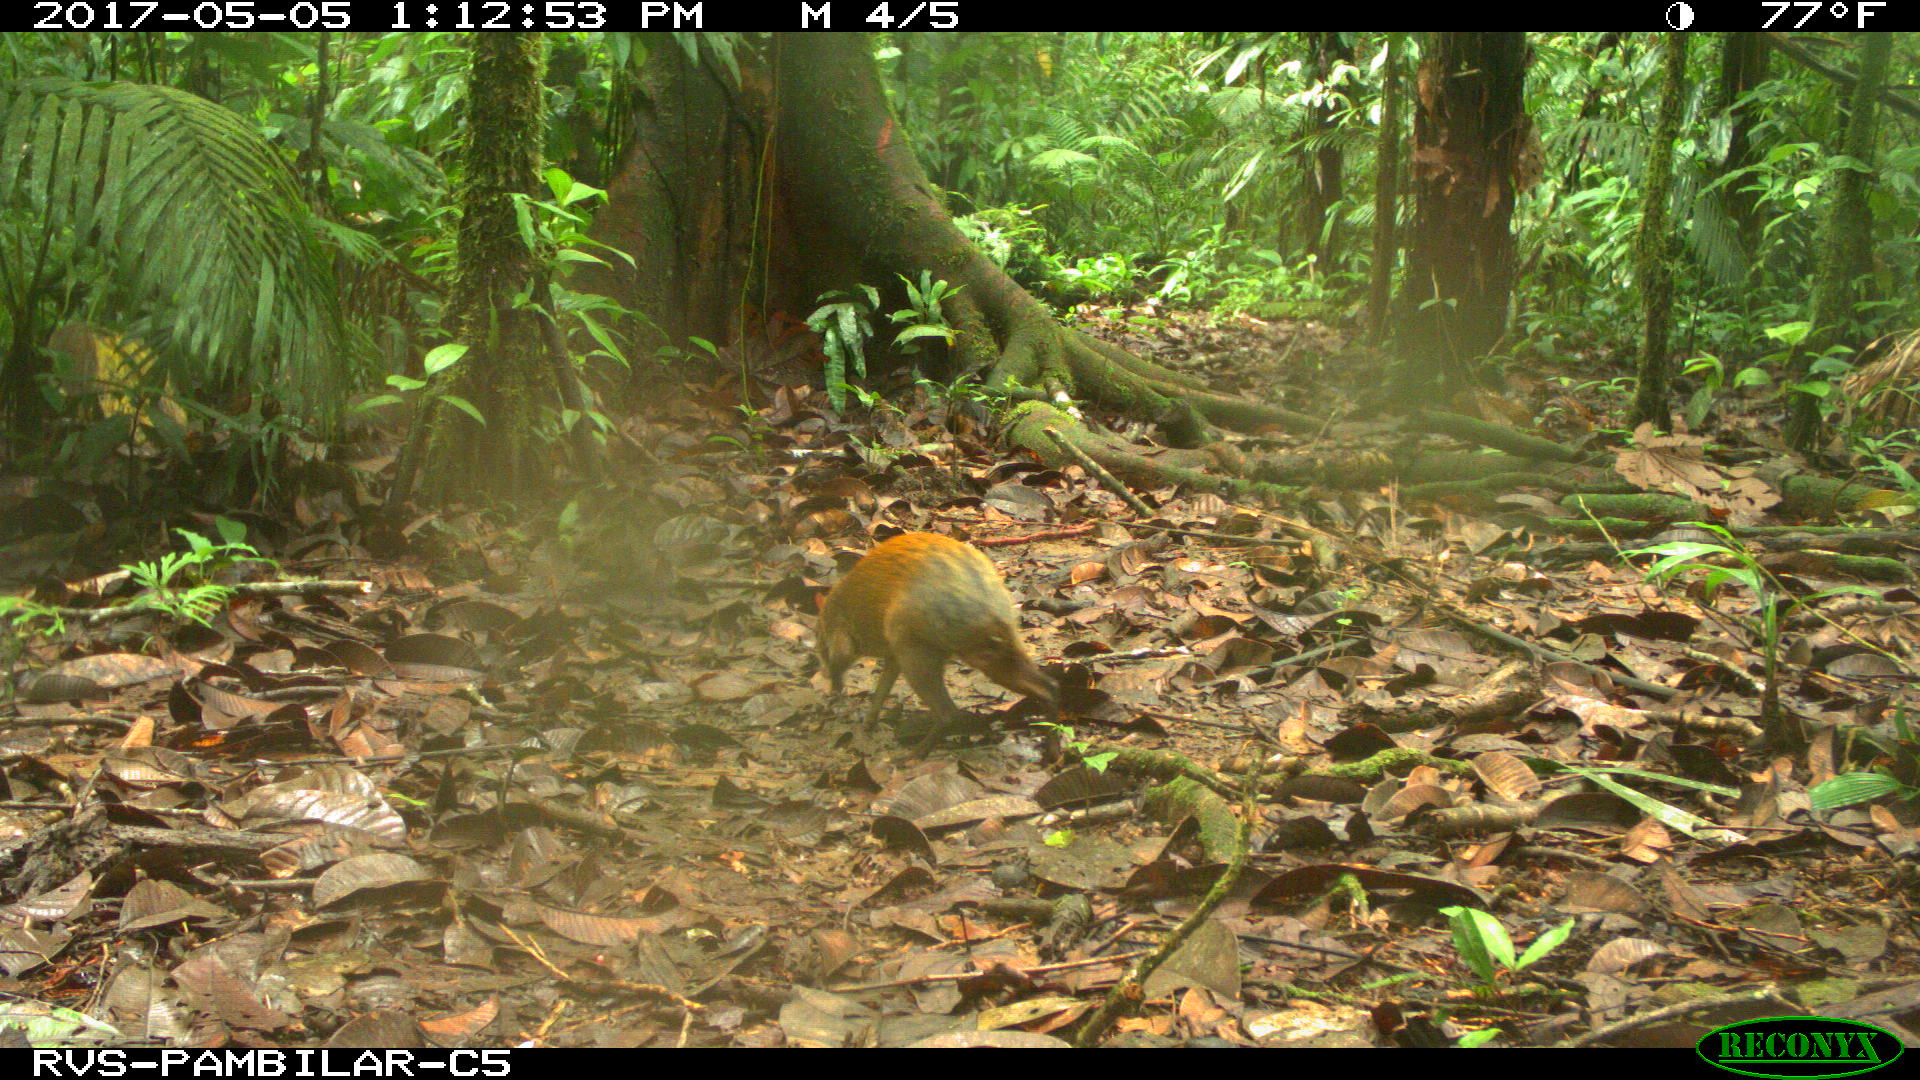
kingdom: Animalia
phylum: Chordata
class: Mammalia
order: Rodentia
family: Dasyproctidae
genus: Dasyprocta
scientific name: Dasyprocta punctata
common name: Central american agouti
